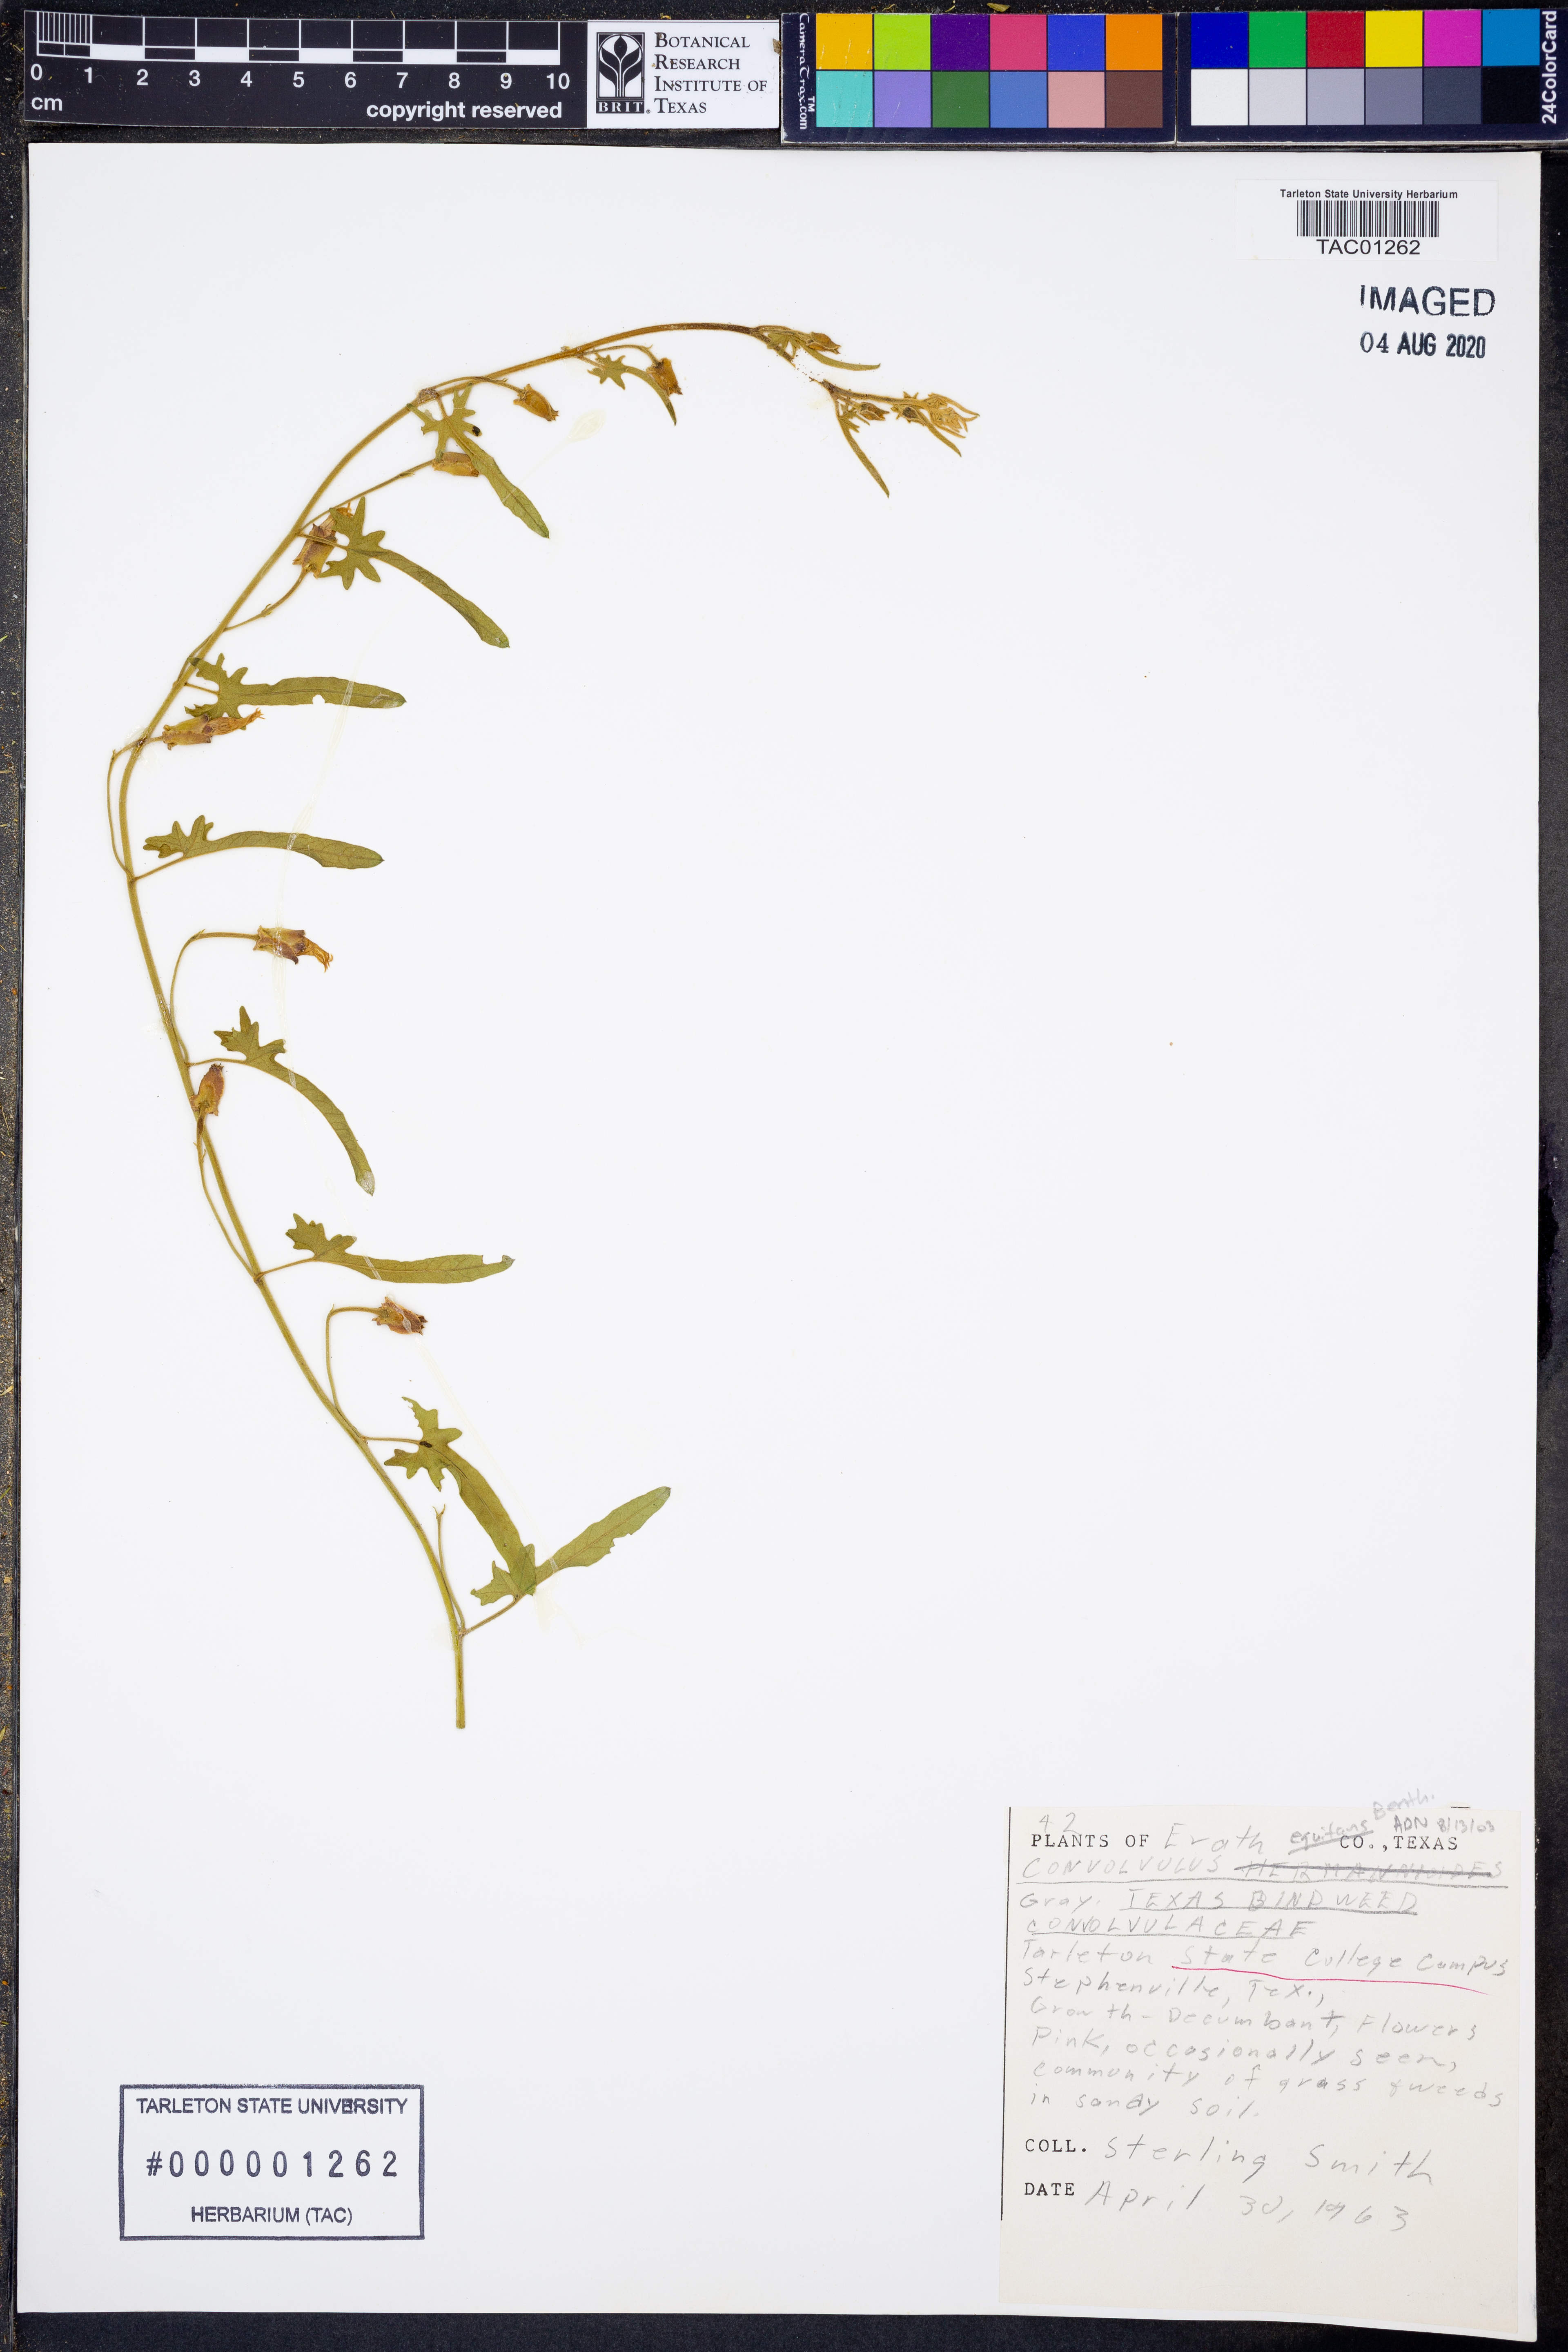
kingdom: Plantae
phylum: Tracheophyta
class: Magnoliopsida
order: Solanales
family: Convolvulaceae
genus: Convolvulus
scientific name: Convolvulus equitans
